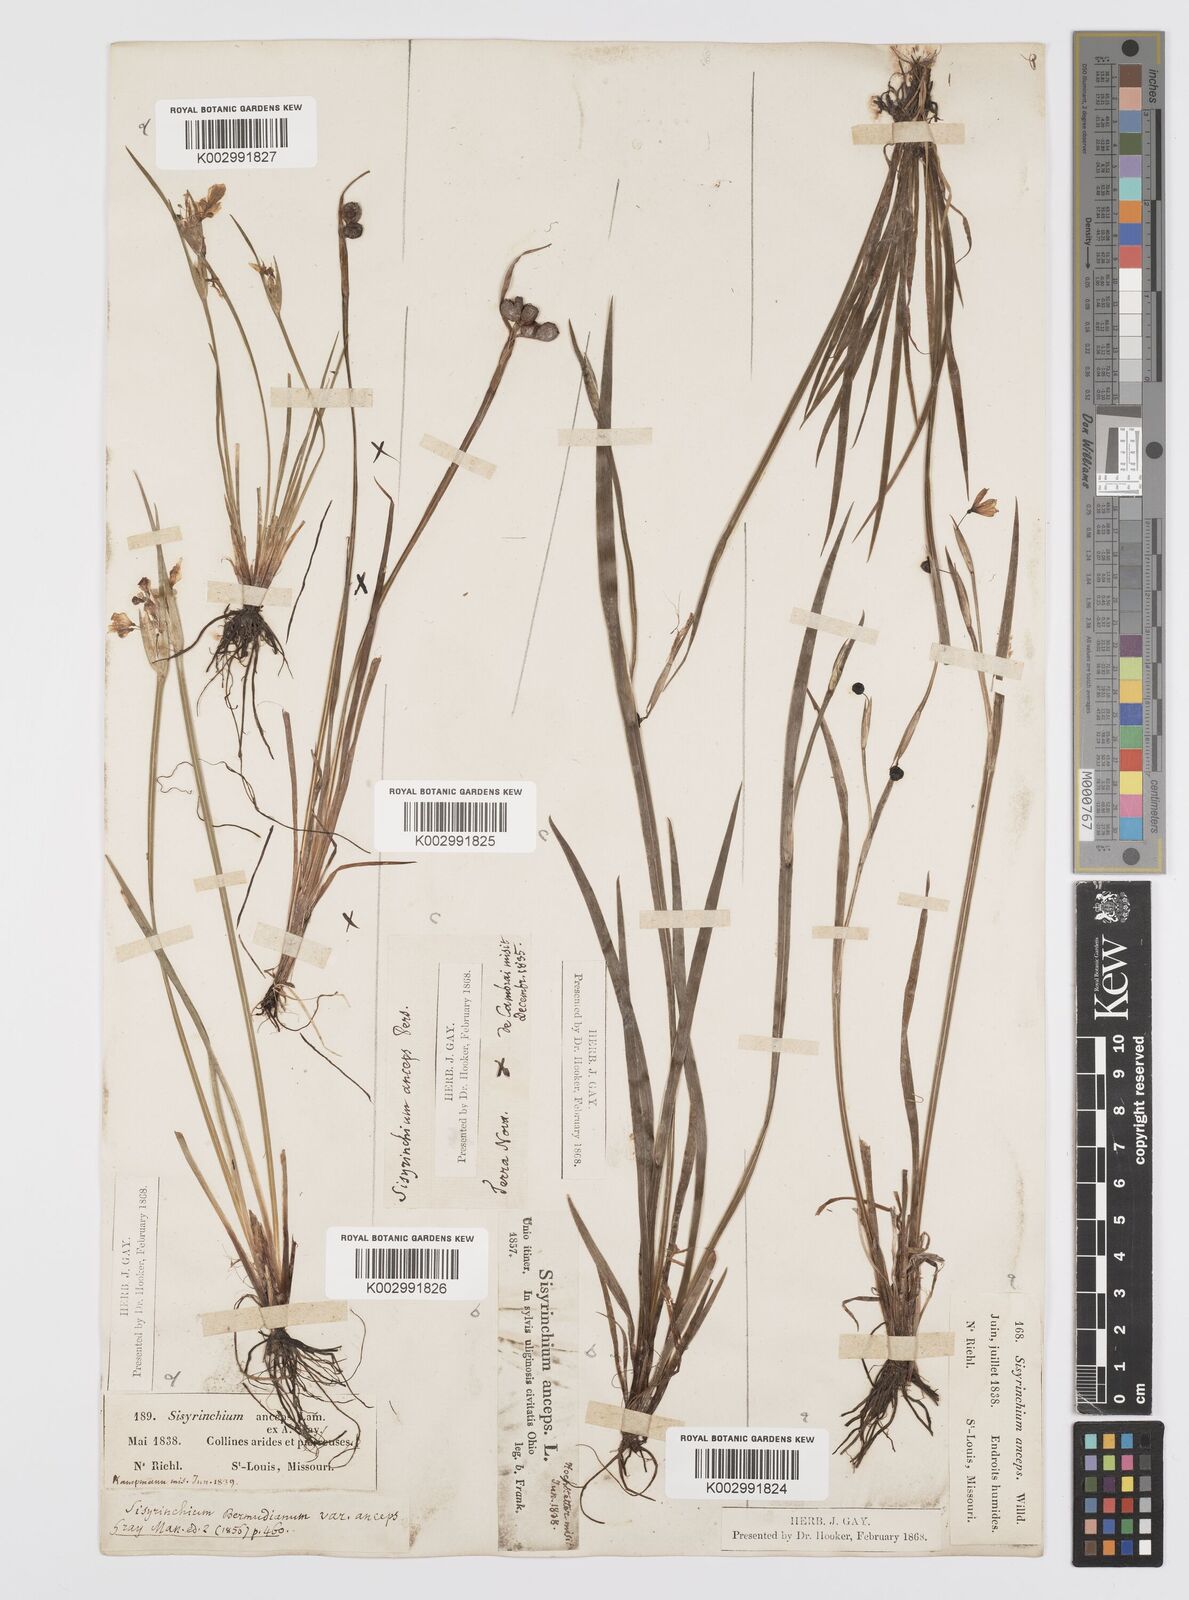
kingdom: Plantae
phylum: Tracheophyta
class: Liliopsida
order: Asparagales
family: Iridaceae
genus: Sisyrinchium
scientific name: Sisyrinchium bermudiana
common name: Blue-eyed-grass
